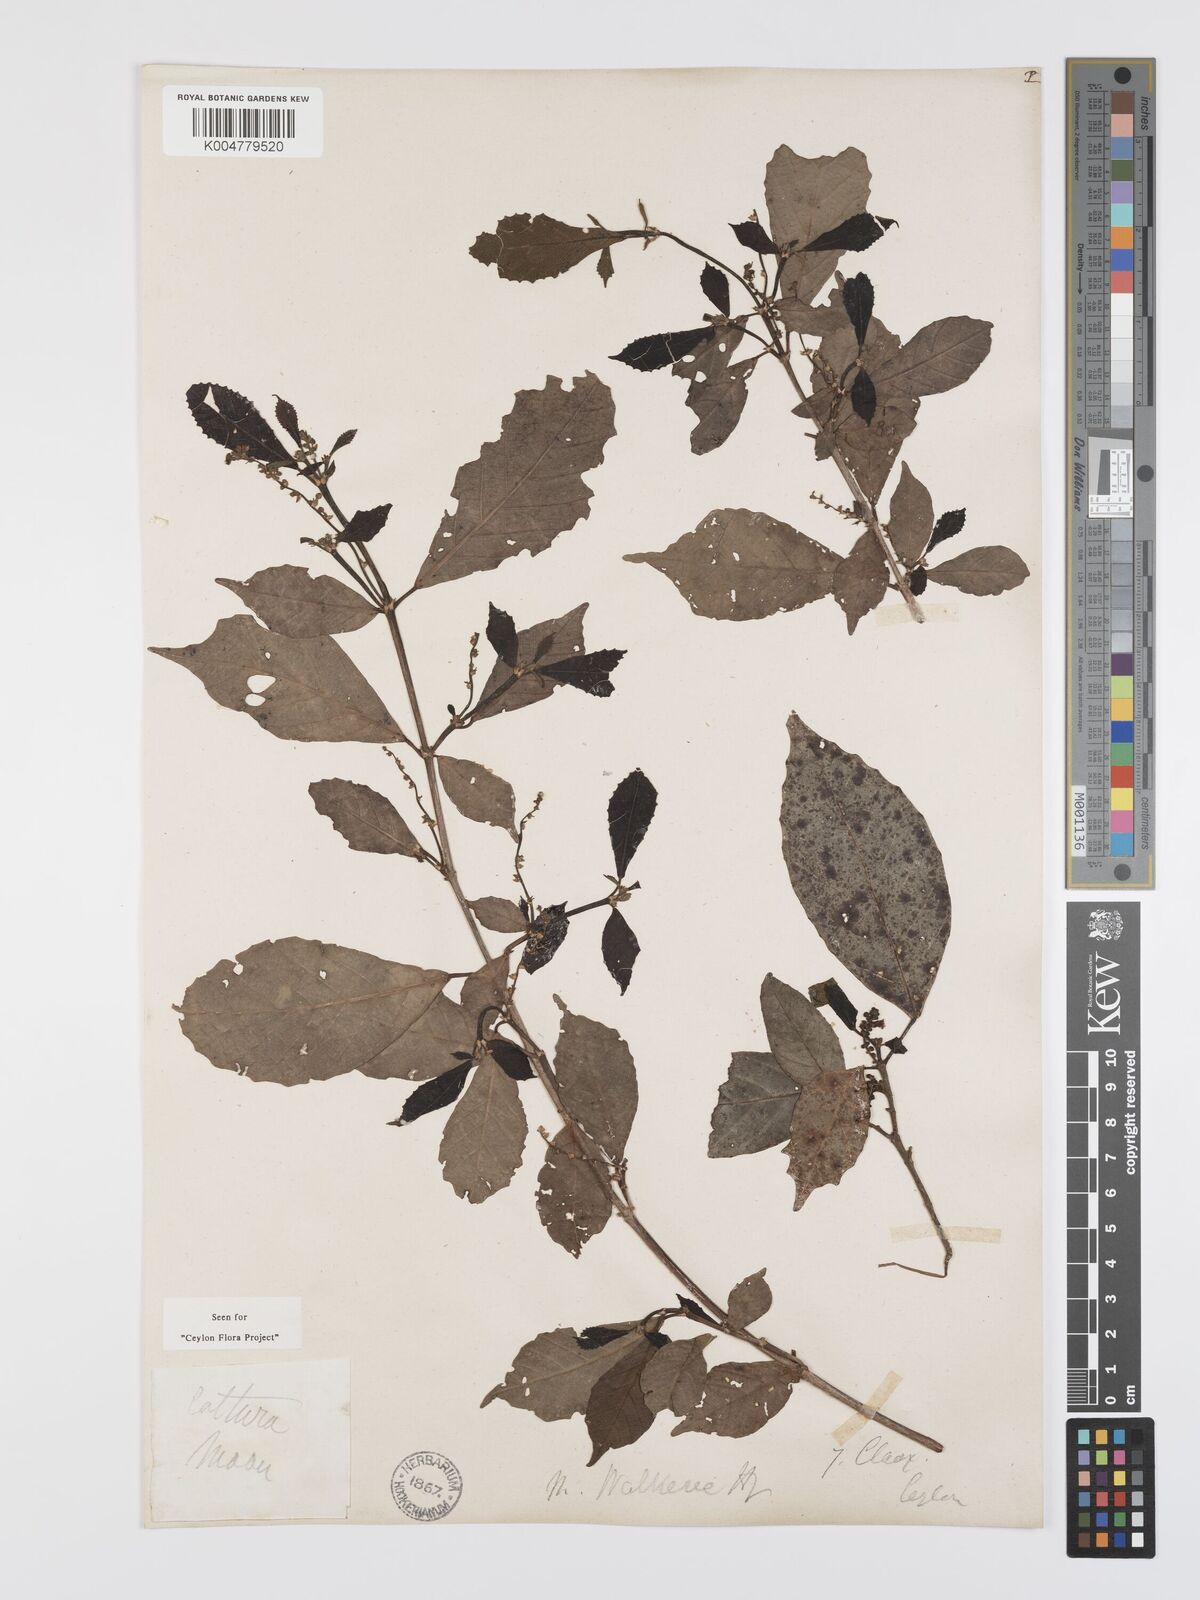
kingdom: Plantae
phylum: Tracheophyta
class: Magnoliopsida
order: Malpighiales
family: Euphorbiaceae
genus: Mallotus
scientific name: Mallotus resinosus
